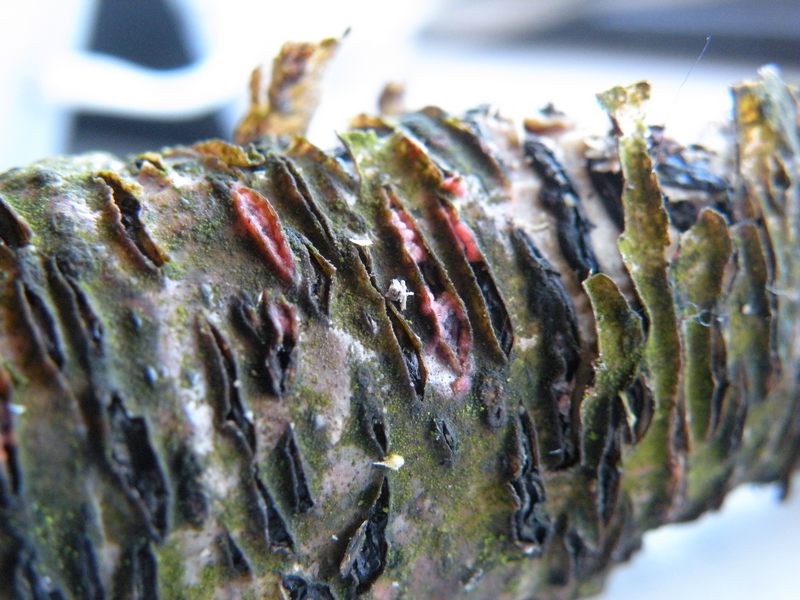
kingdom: Fungi
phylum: Basidiomycota
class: Agaricomycetes
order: Corticiales
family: Corticiaceae
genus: Marchandiomyces
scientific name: Marchandiomyces aurantioroseus
